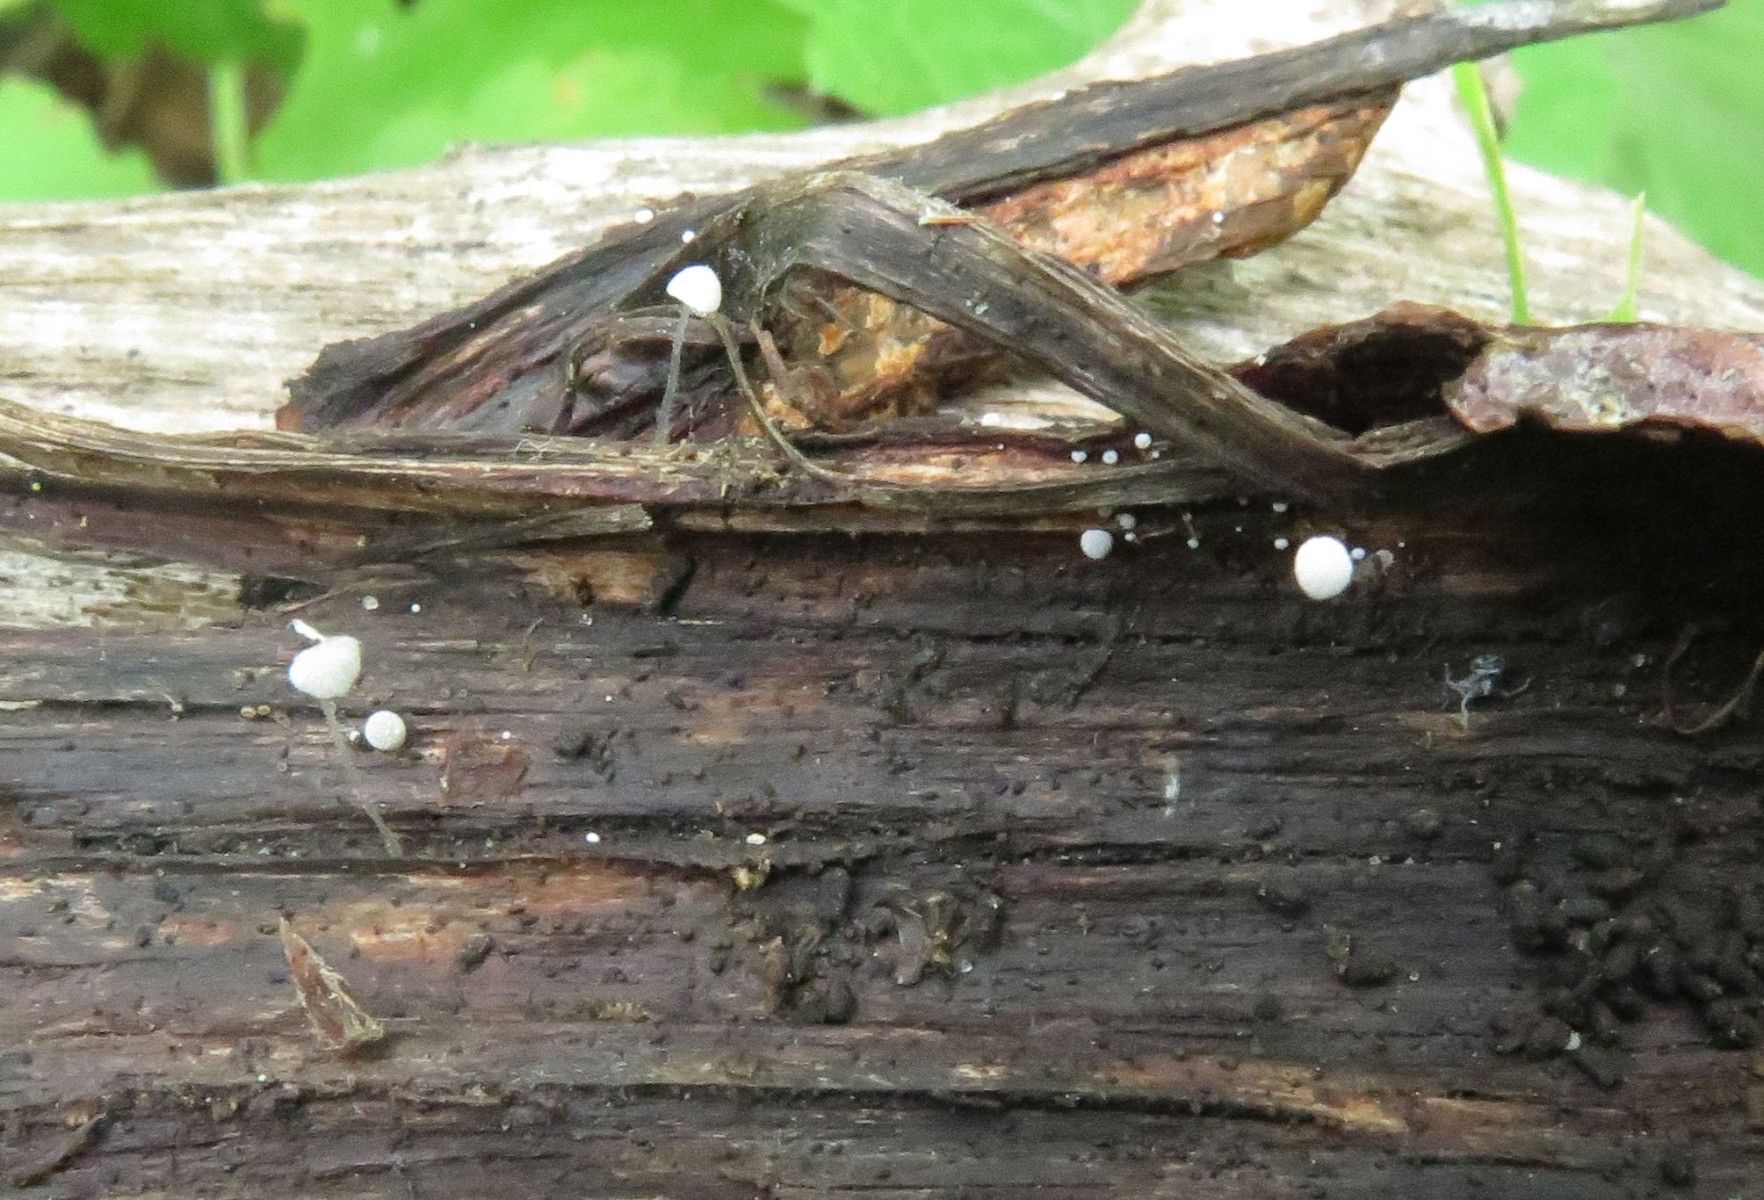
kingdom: Fungi
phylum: Basidiomycota
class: Agaricomycetes
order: Agaricales
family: Mycenaceae
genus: Mycena
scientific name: Mycena tenerrima
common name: pudret huesvamp
